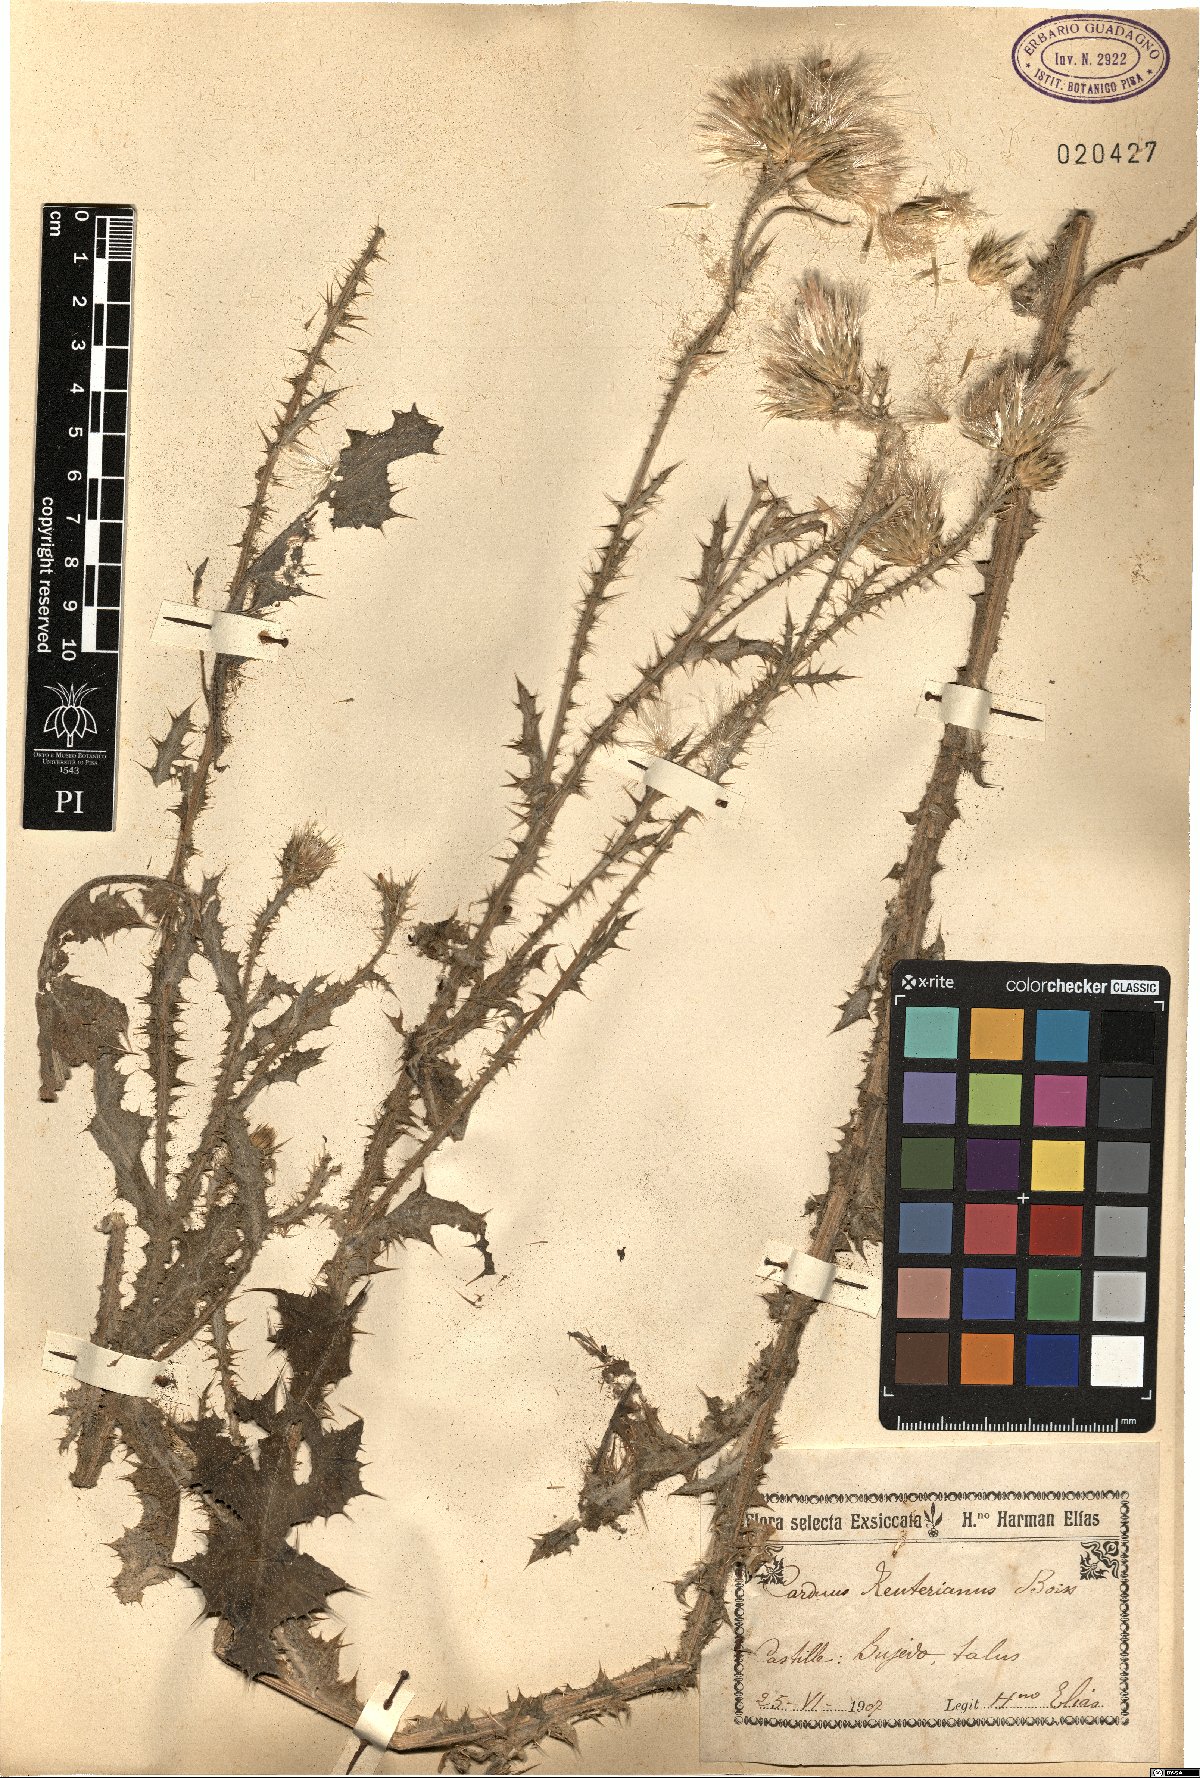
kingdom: Plantae
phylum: Tracheophyta
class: Magnoliopsida
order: Asterales
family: Asteraceae
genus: Carduus
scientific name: Carduus bourgeanus
